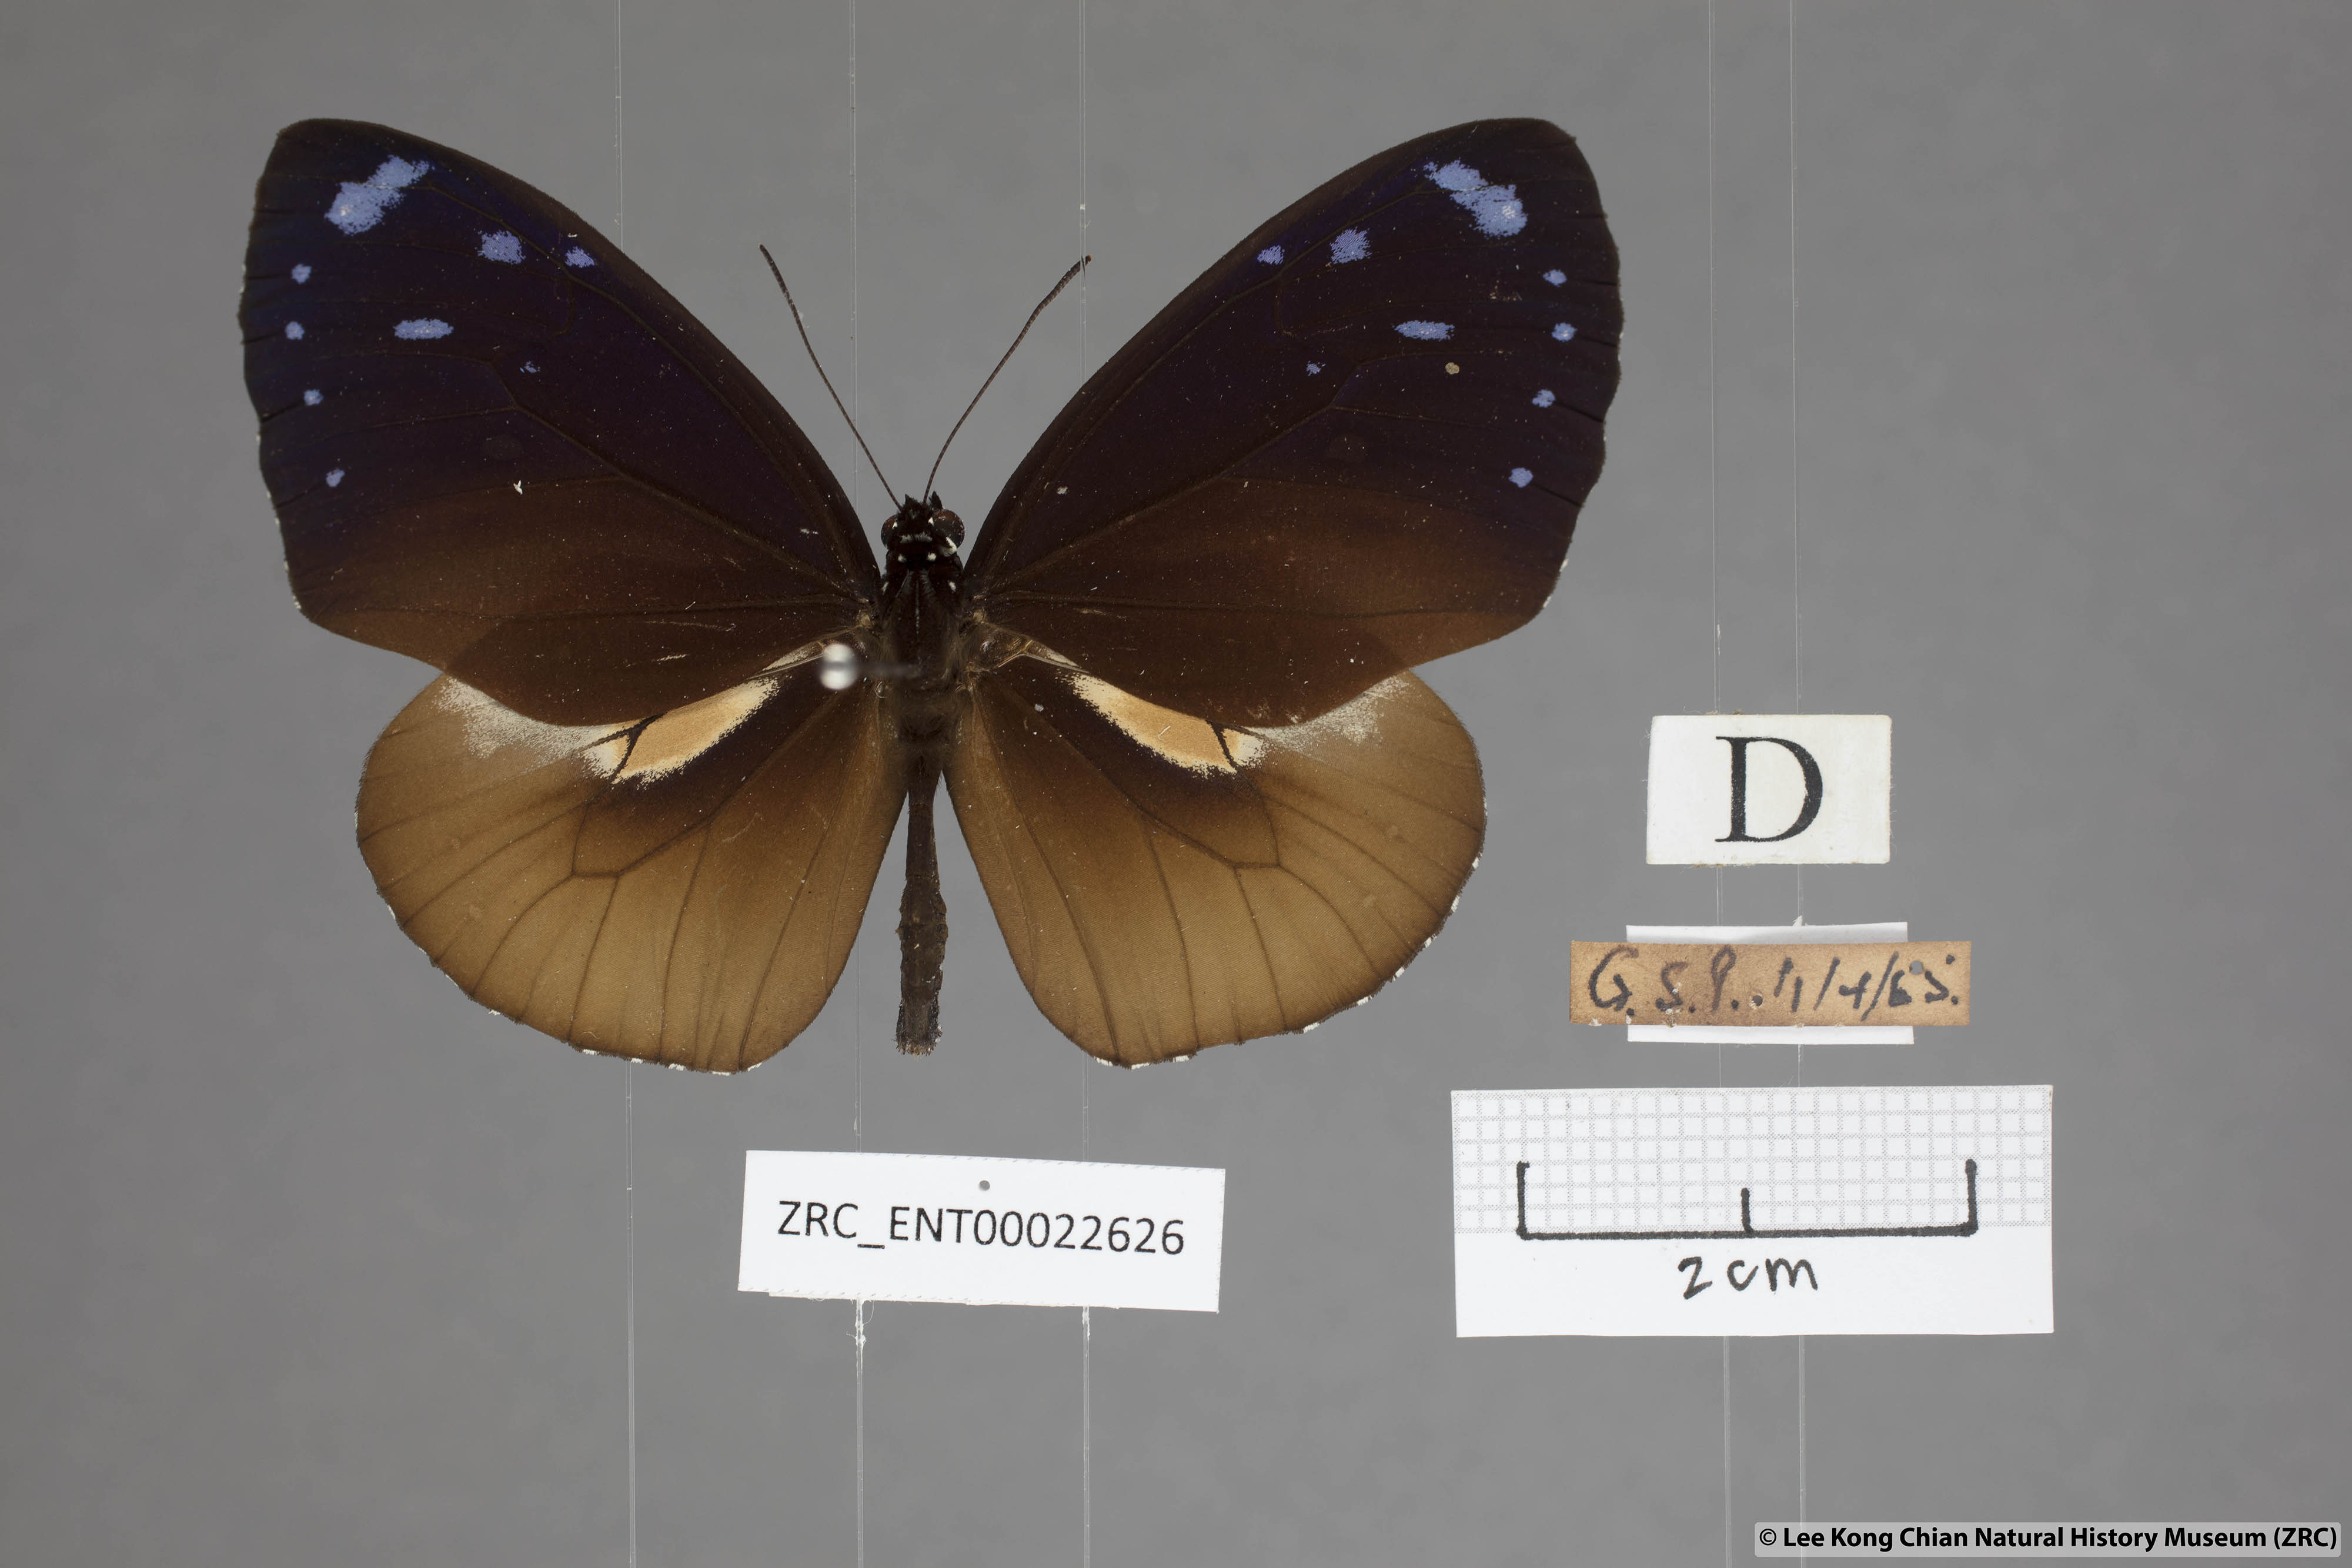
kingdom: Animalia
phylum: Arthropoda
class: Insecta
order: Lepidoptera
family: Nymphalidae
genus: Euploea
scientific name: Euploea tulliolus
